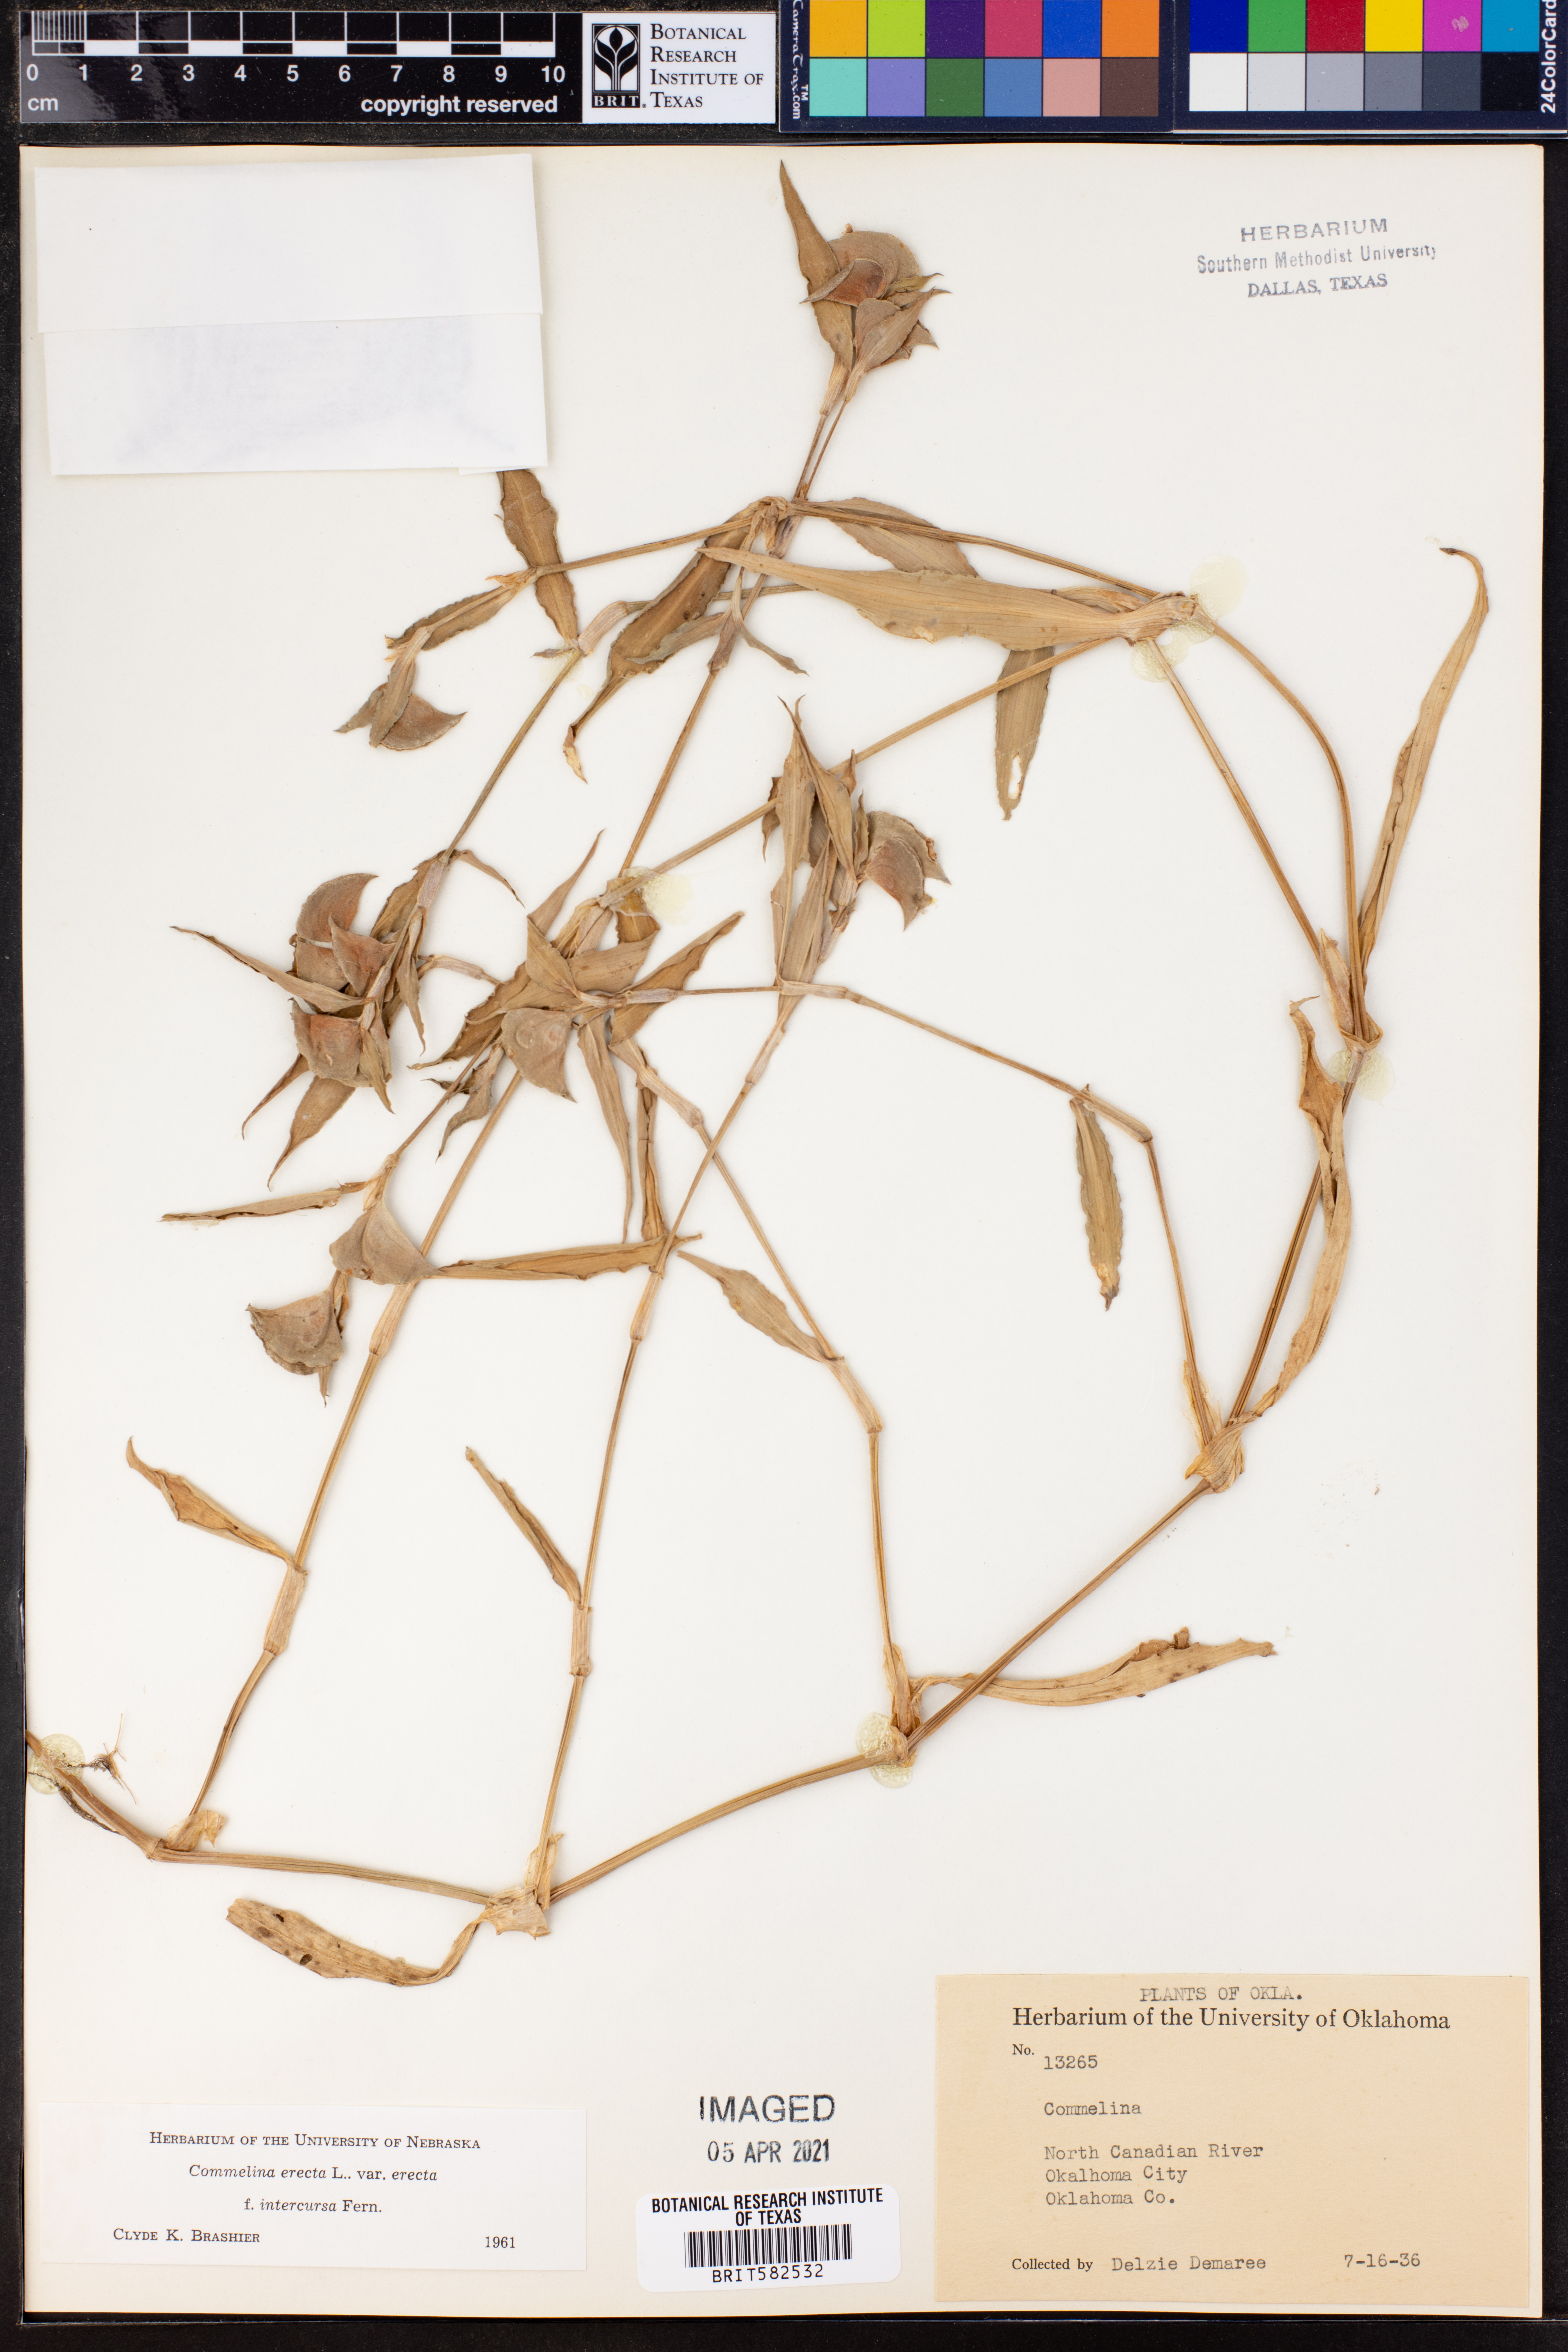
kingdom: Plantae
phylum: Tracheophyta
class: Liliopsida
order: Commelinales
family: Commelinaceae
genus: Commelina
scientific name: Commelina erecta
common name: Blousel blommetjie
